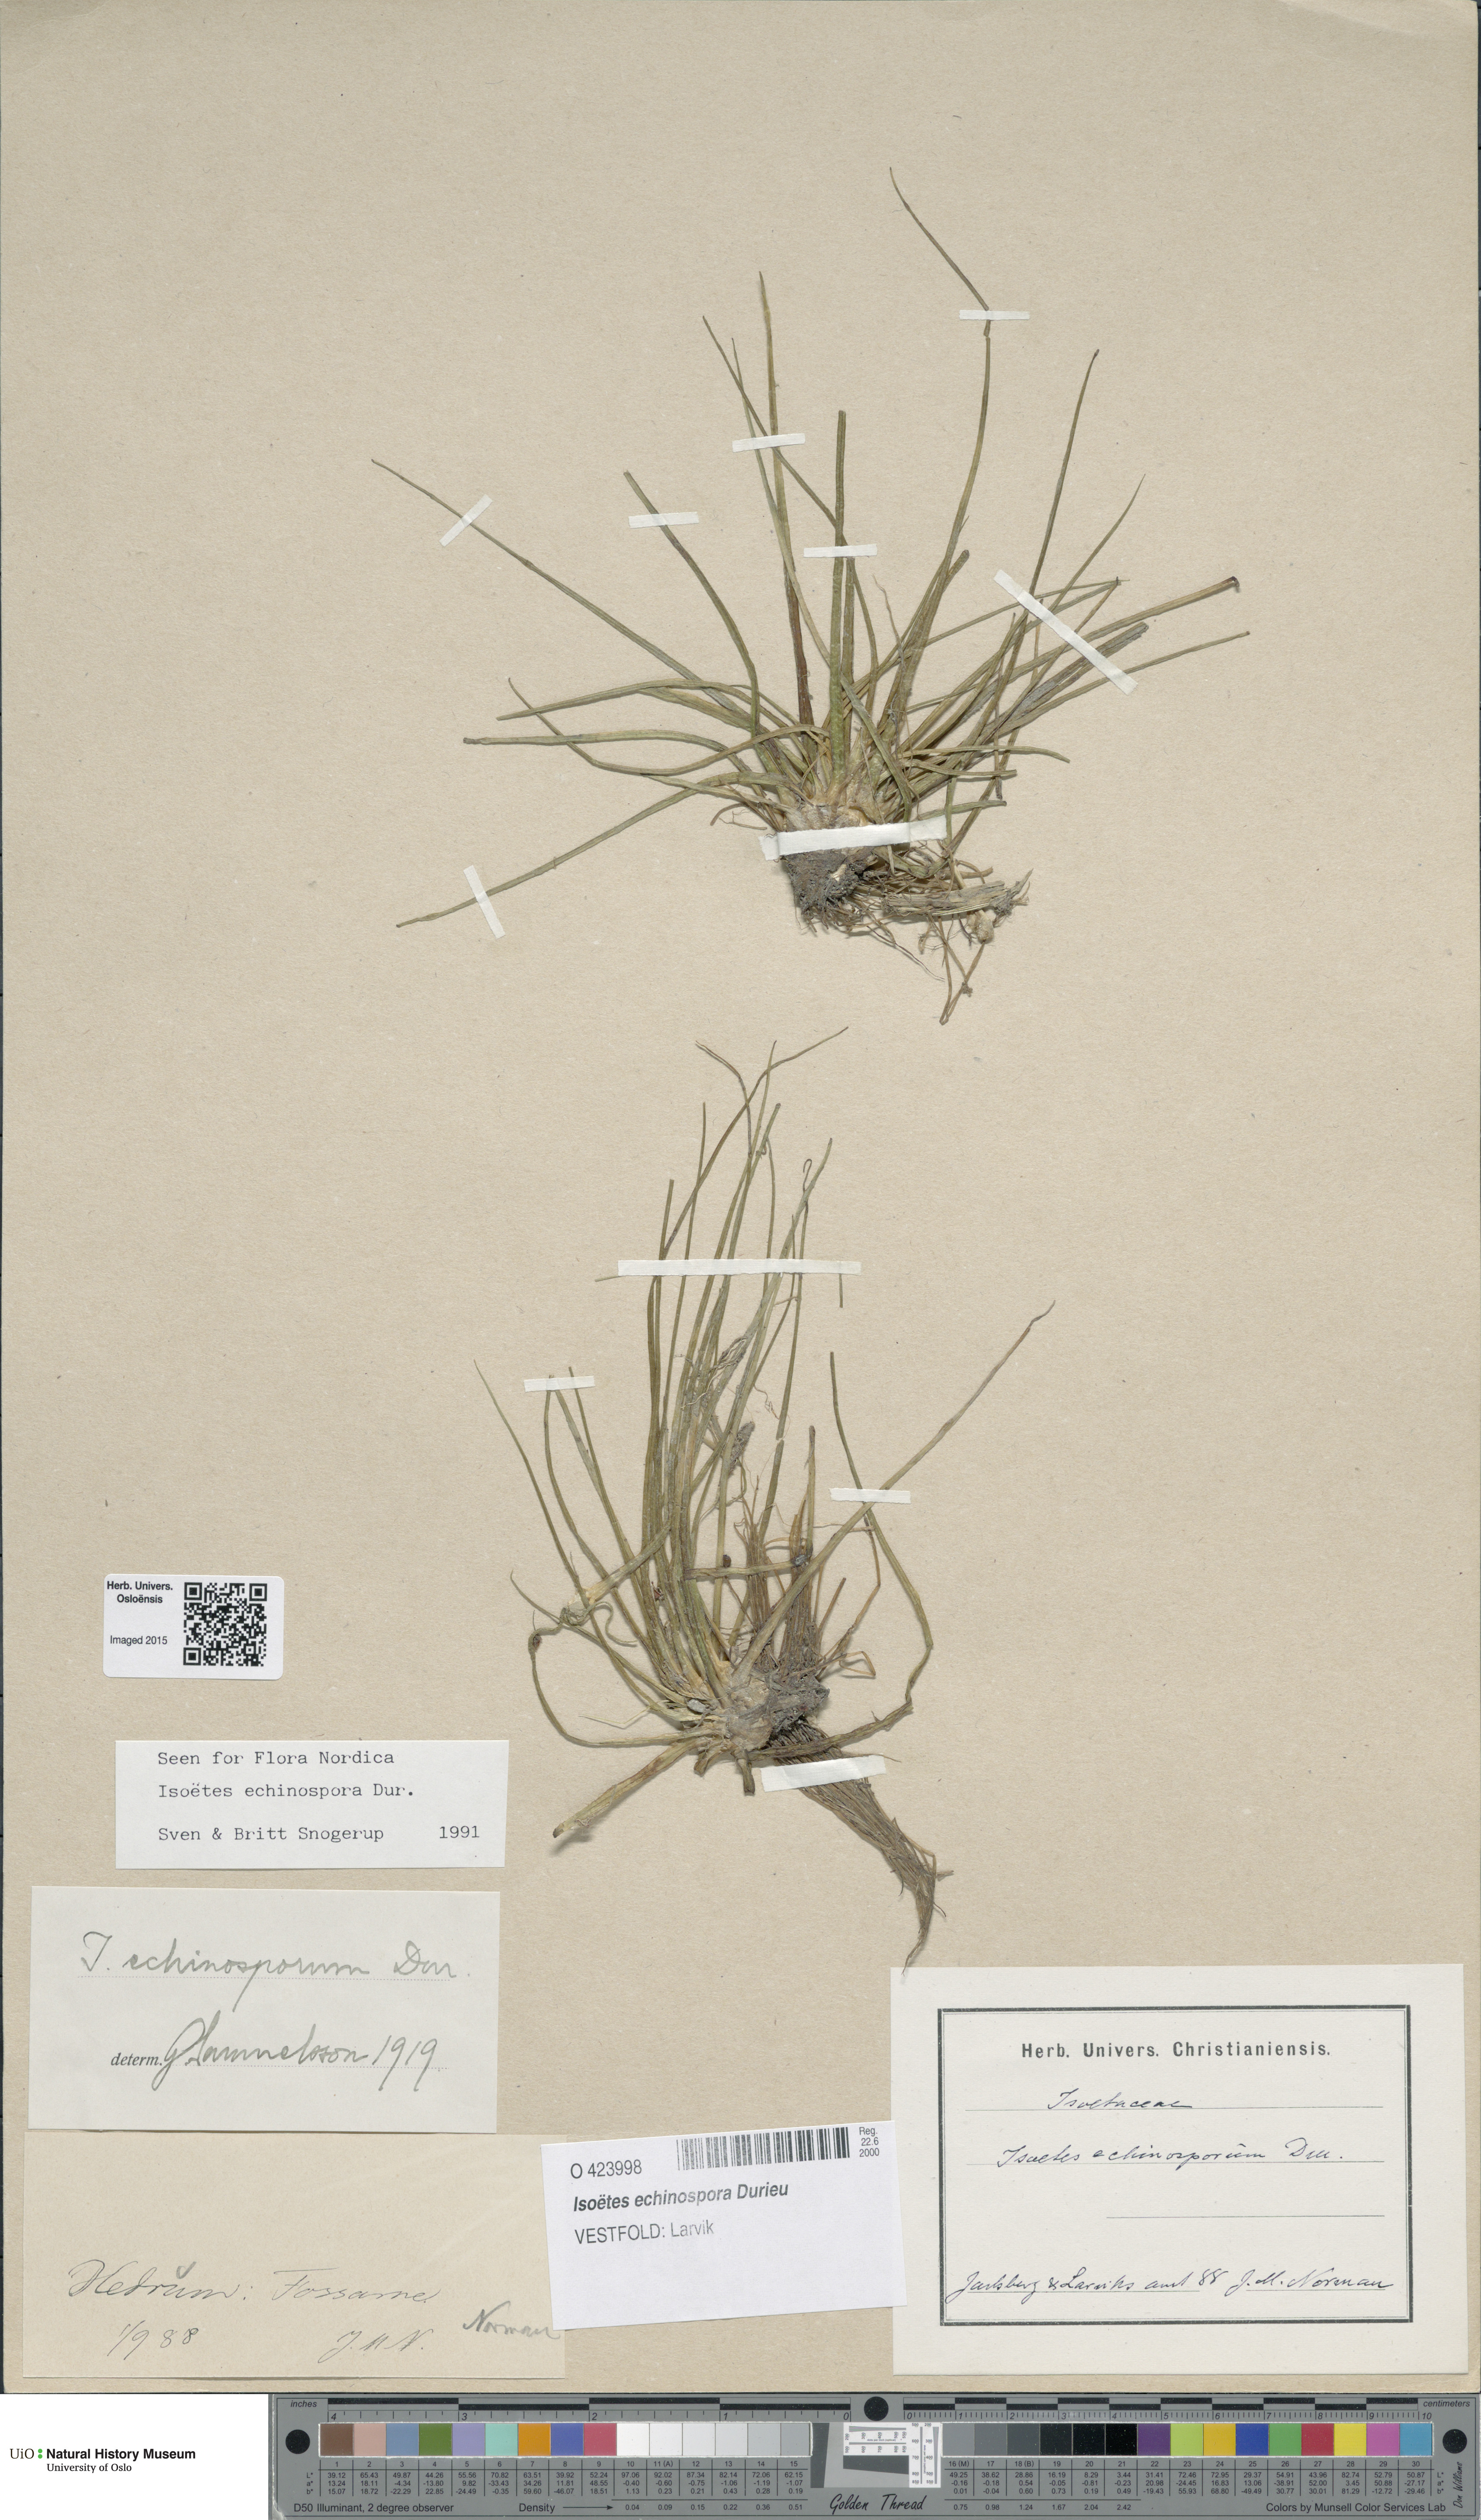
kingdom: Plantae
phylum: Tracheophyta
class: Lycopodiopsida
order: Isoetales
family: Isoetaceae
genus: Isoetes
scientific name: Isoetes echinospora
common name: Spring quillwort
